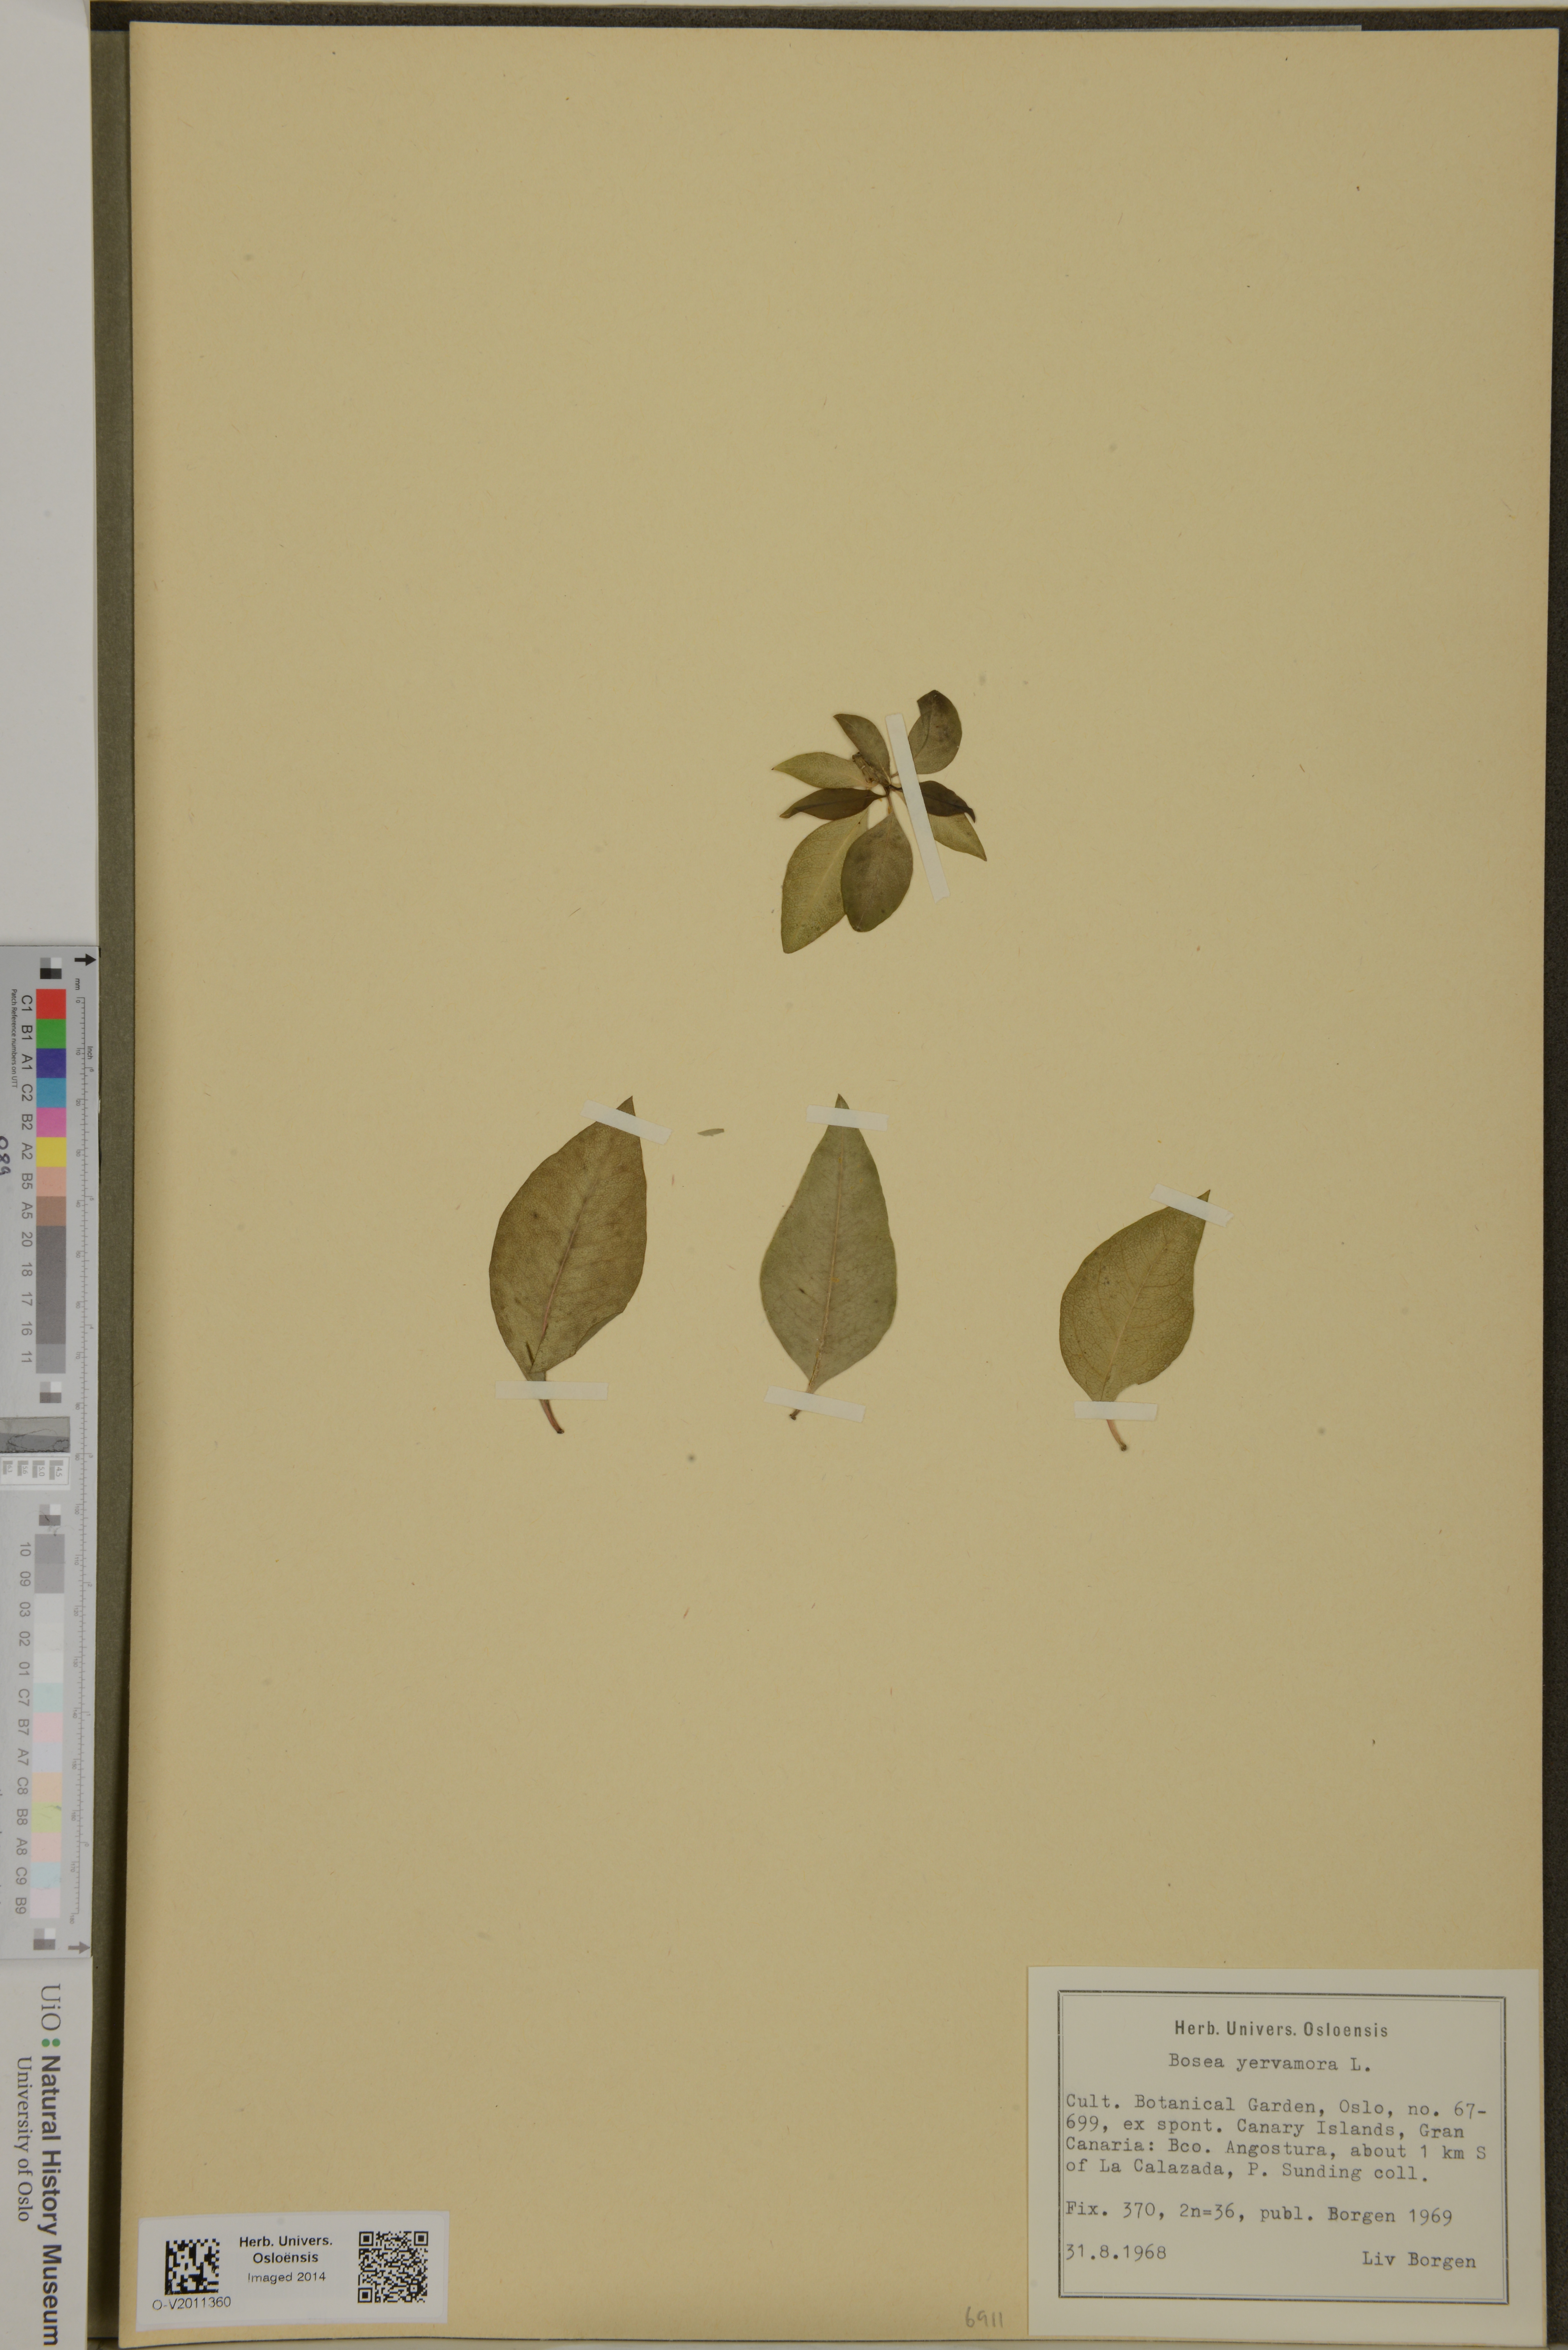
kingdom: Plantae
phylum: Tracheophyta
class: Magnoliopsida
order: Caryophyllales
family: Amaranthaceae
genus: Bosea
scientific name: Bosea yervamora
